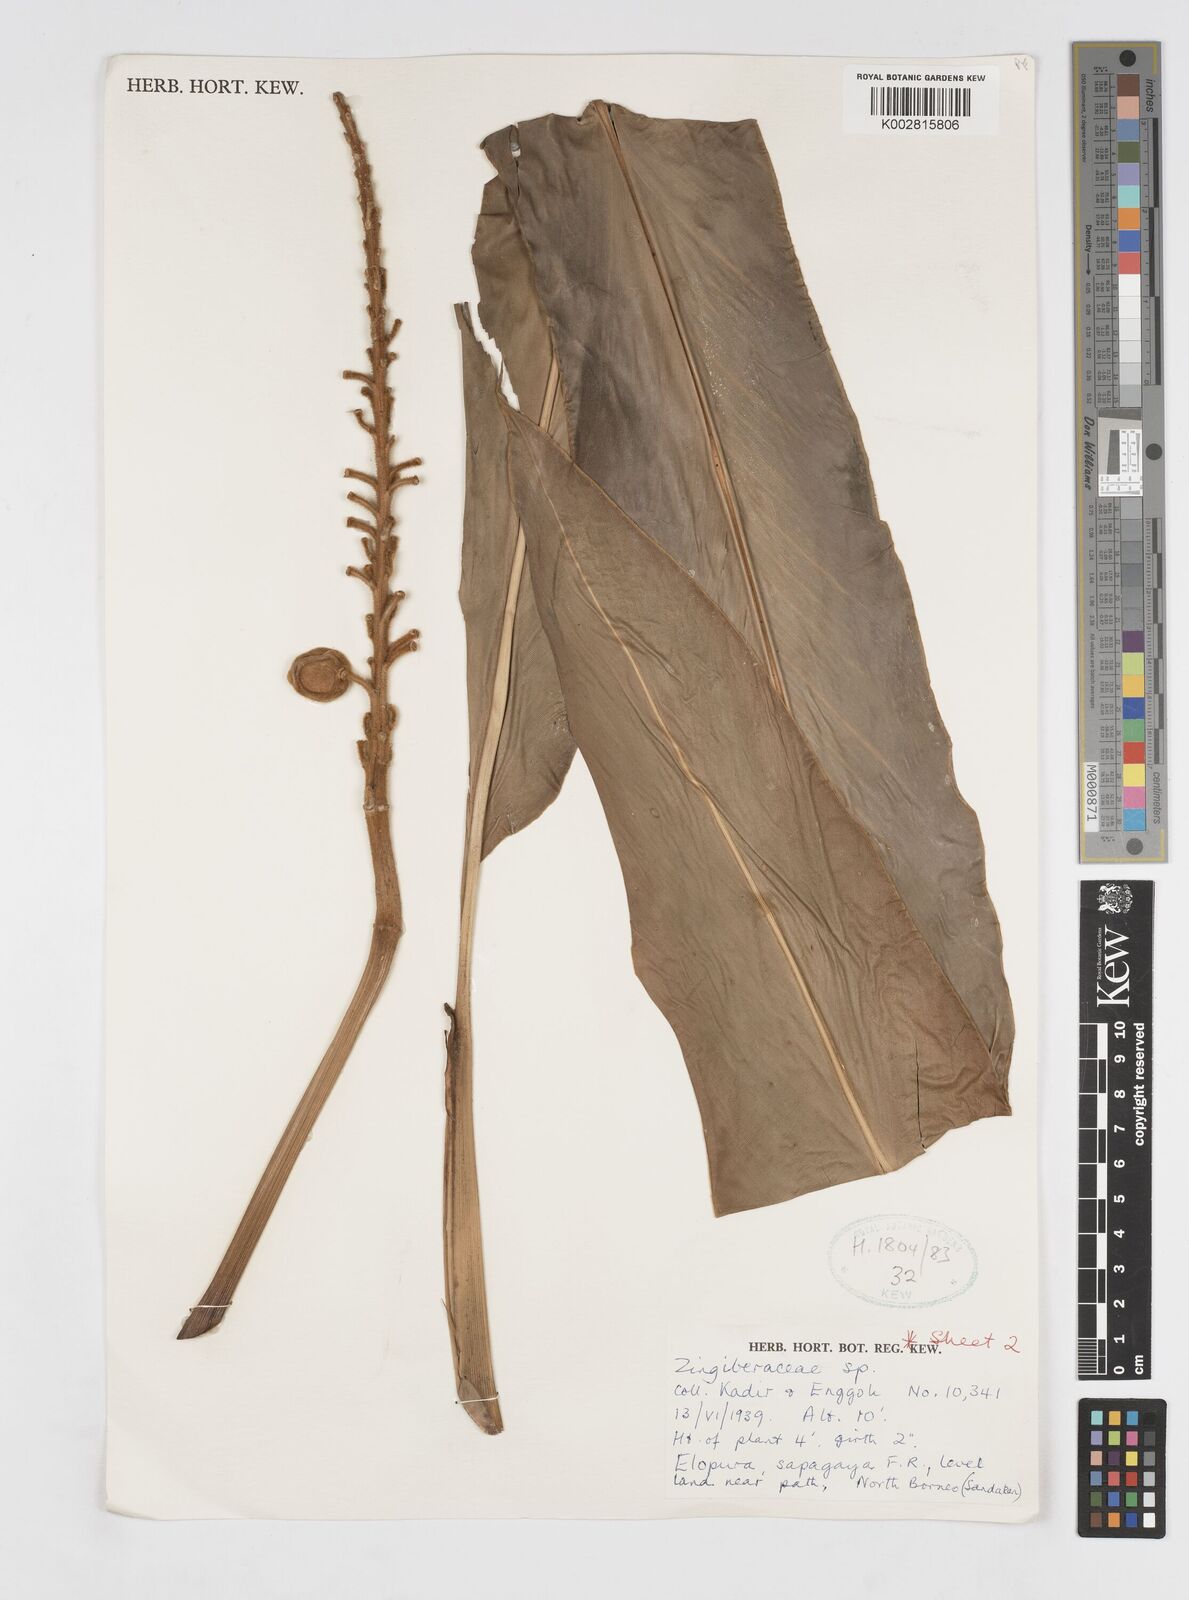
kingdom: Plantae
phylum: Tracheophyta
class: Liliopsida
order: Zingiberales
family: Zingiberaceae
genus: Alpinia
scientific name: Alpinia latilabris
